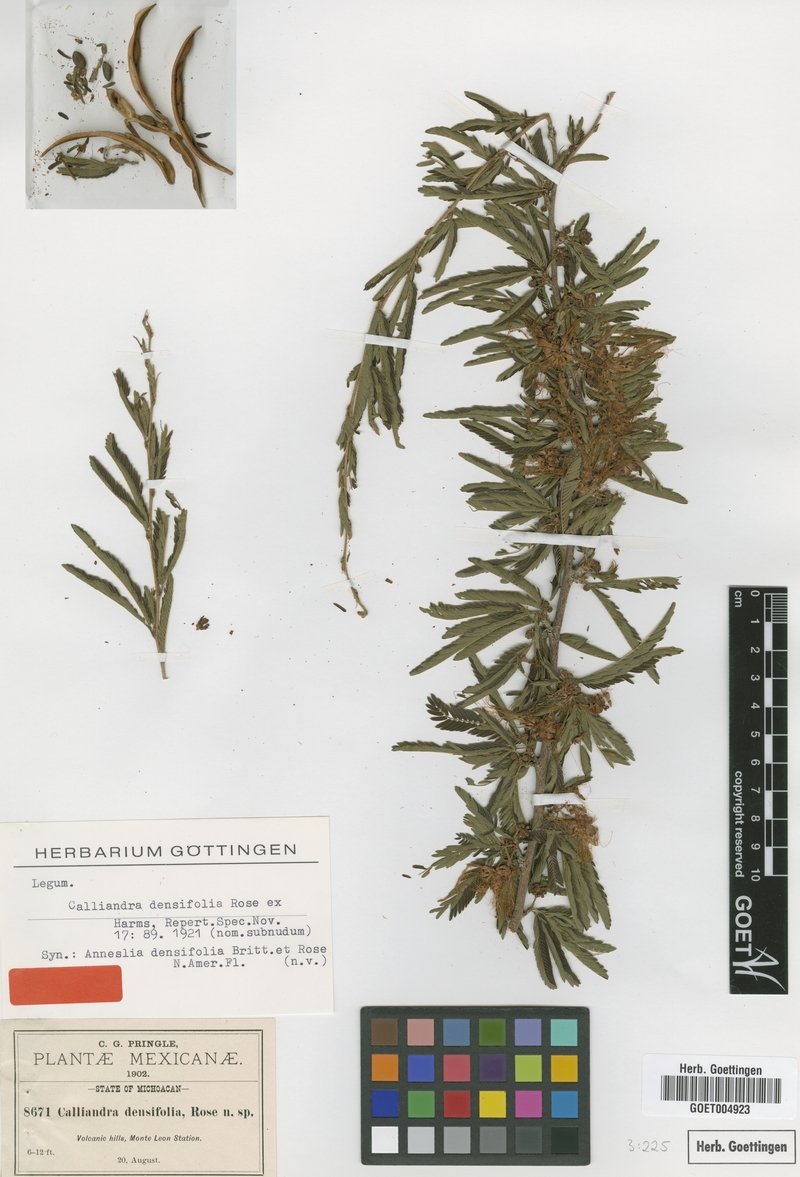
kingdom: Plantae
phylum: Tracheophyta
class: Magnoliopsida
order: Fabales
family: Fabaceae
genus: Calliandra
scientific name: Calliandra caeciliae
